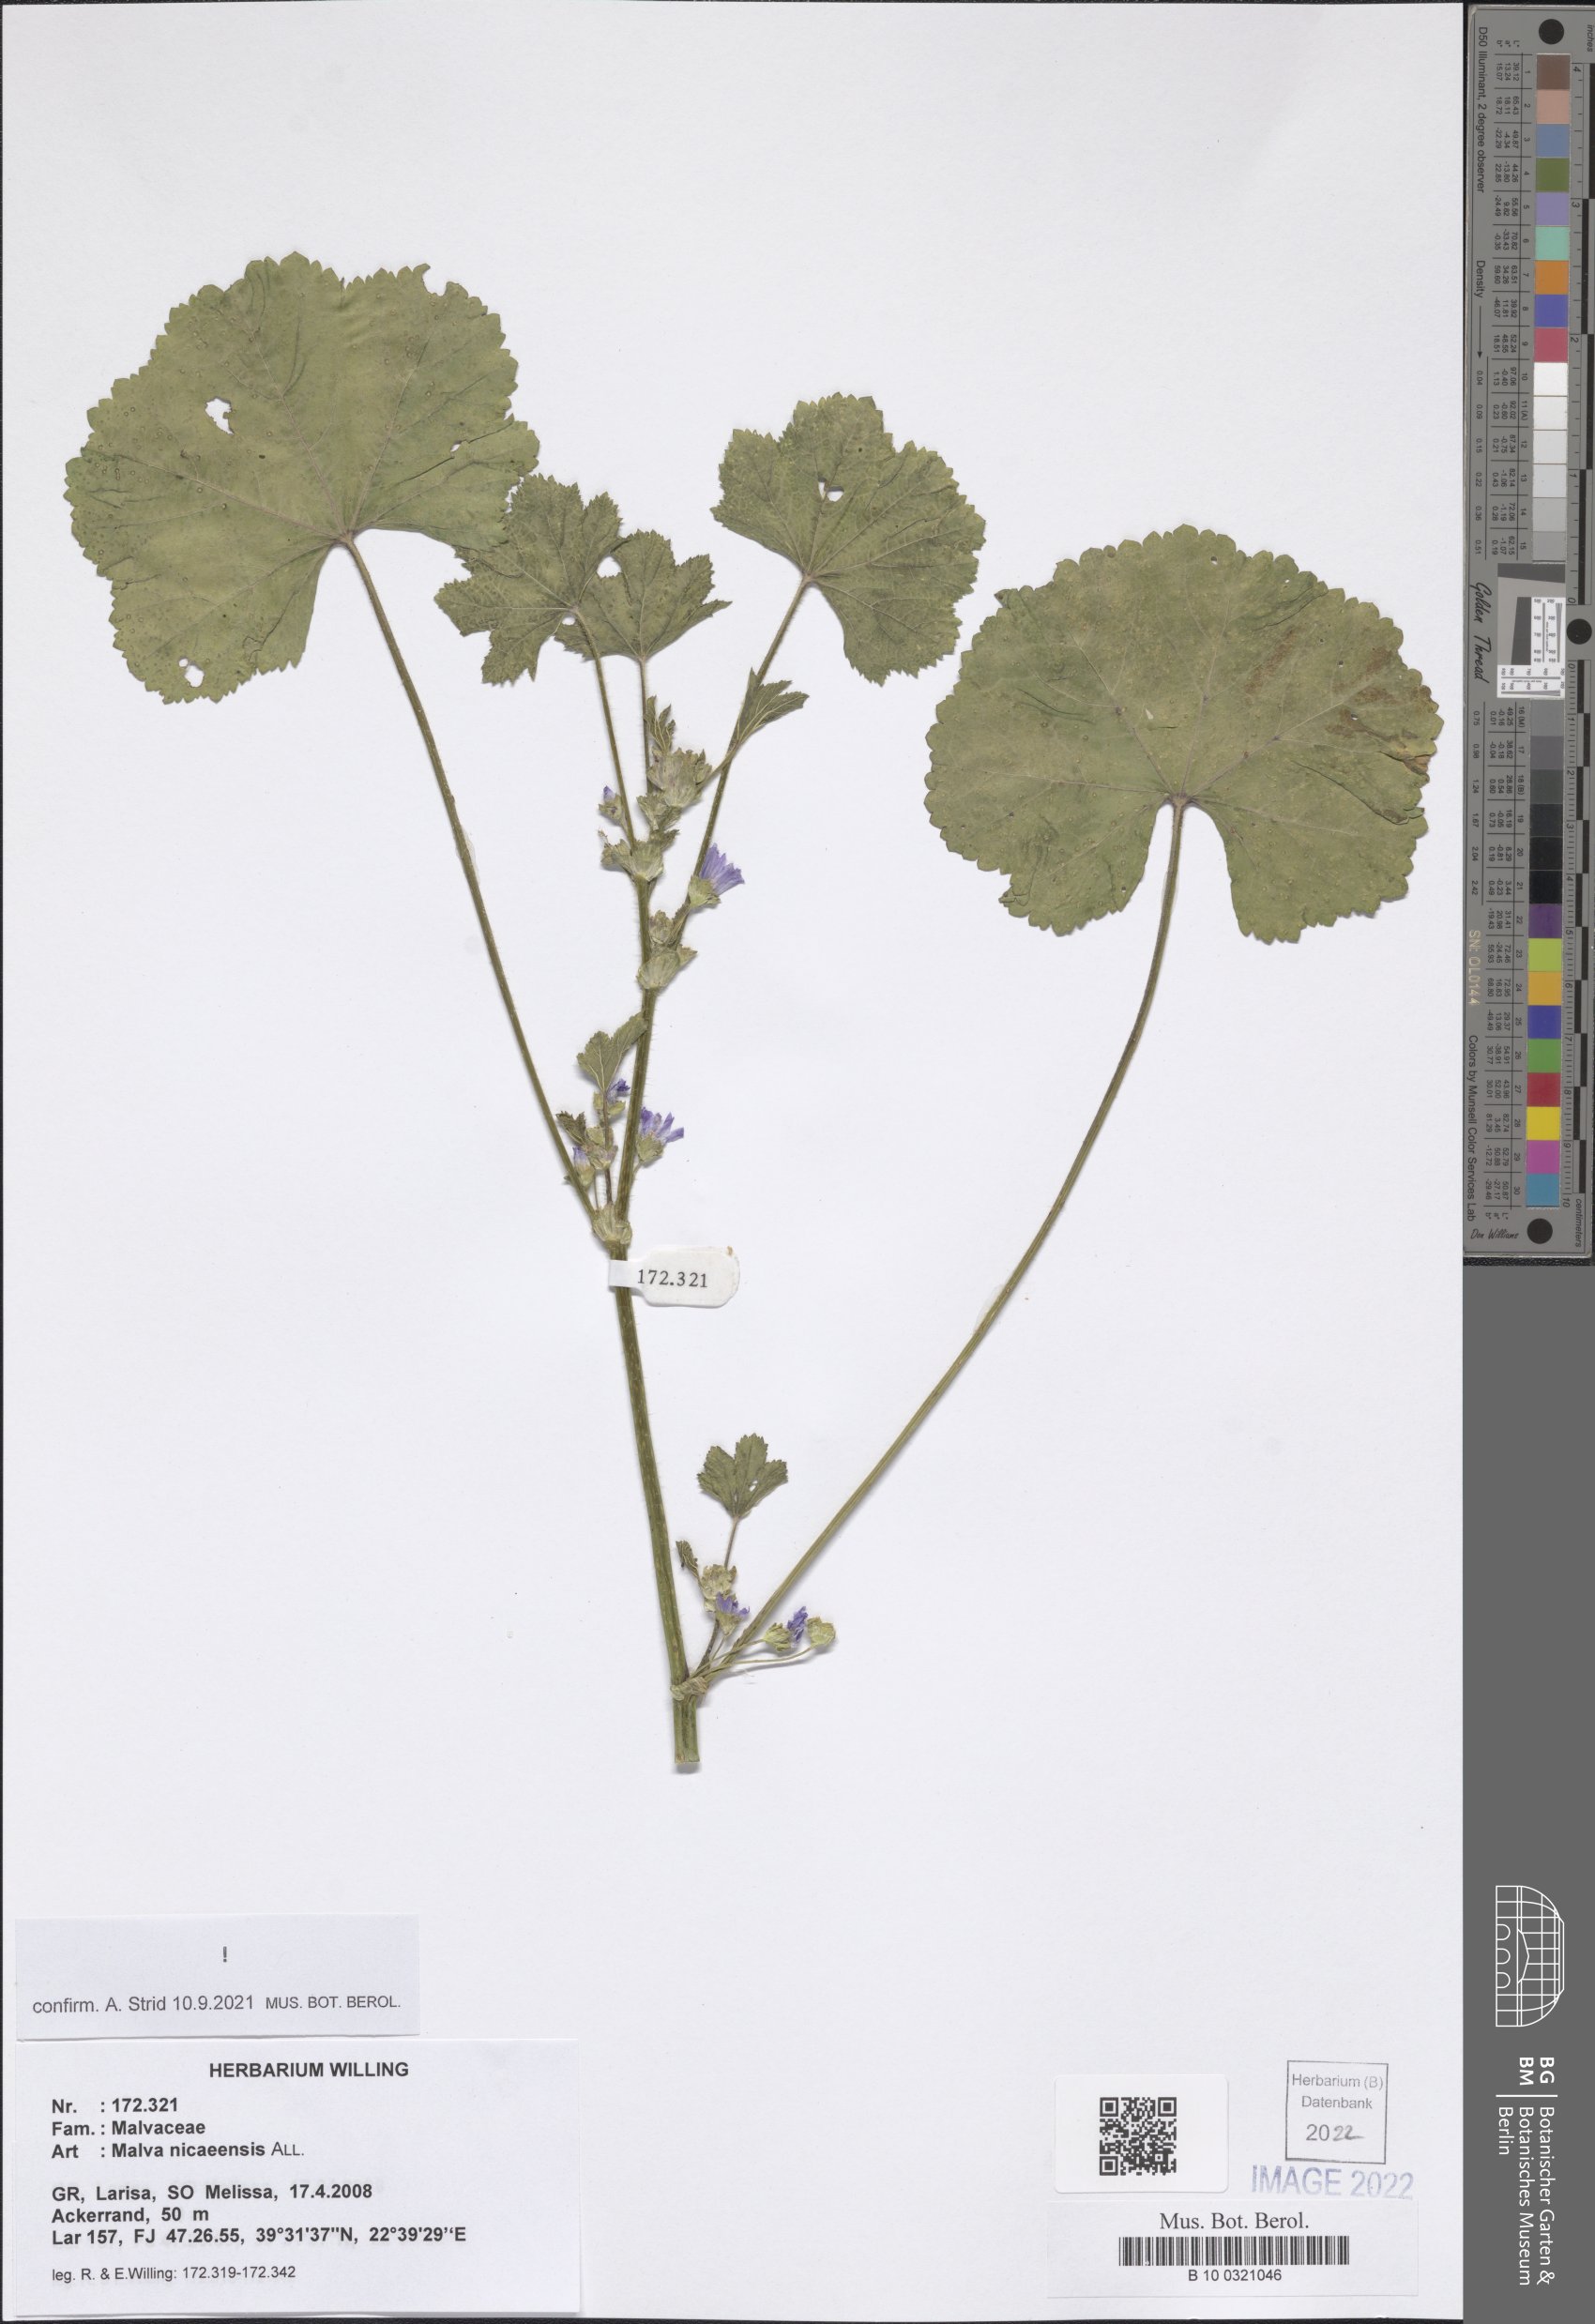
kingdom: Plantae
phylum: Tracheophyta
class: Magnoliopsida
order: Malvales
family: Malvaceae
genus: Malva
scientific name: Malva nicaeensis
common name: French mallow
